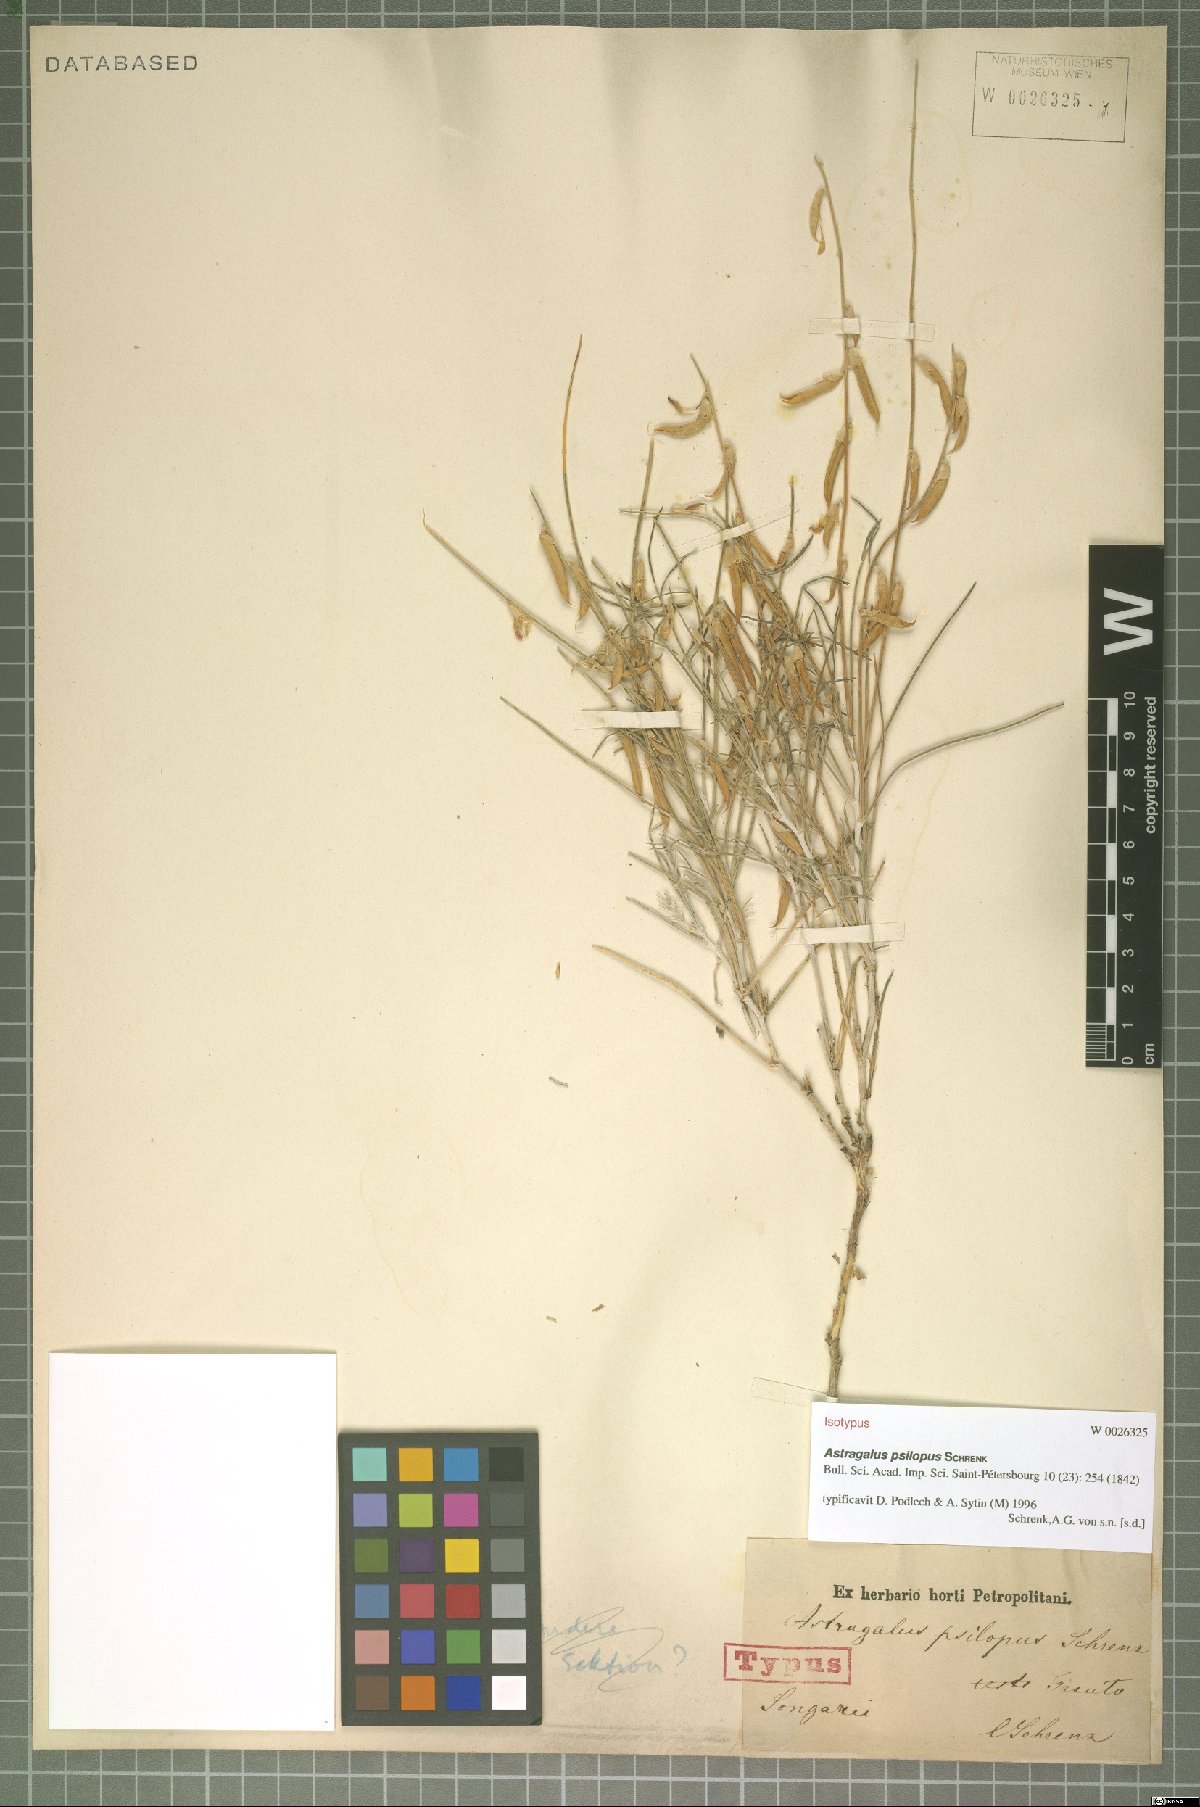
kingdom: Plantae
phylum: Tracheophyta
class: Magnoliopsida
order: Fabales
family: Fabaceae
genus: Astragalus
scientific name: Astragalus psilopus
